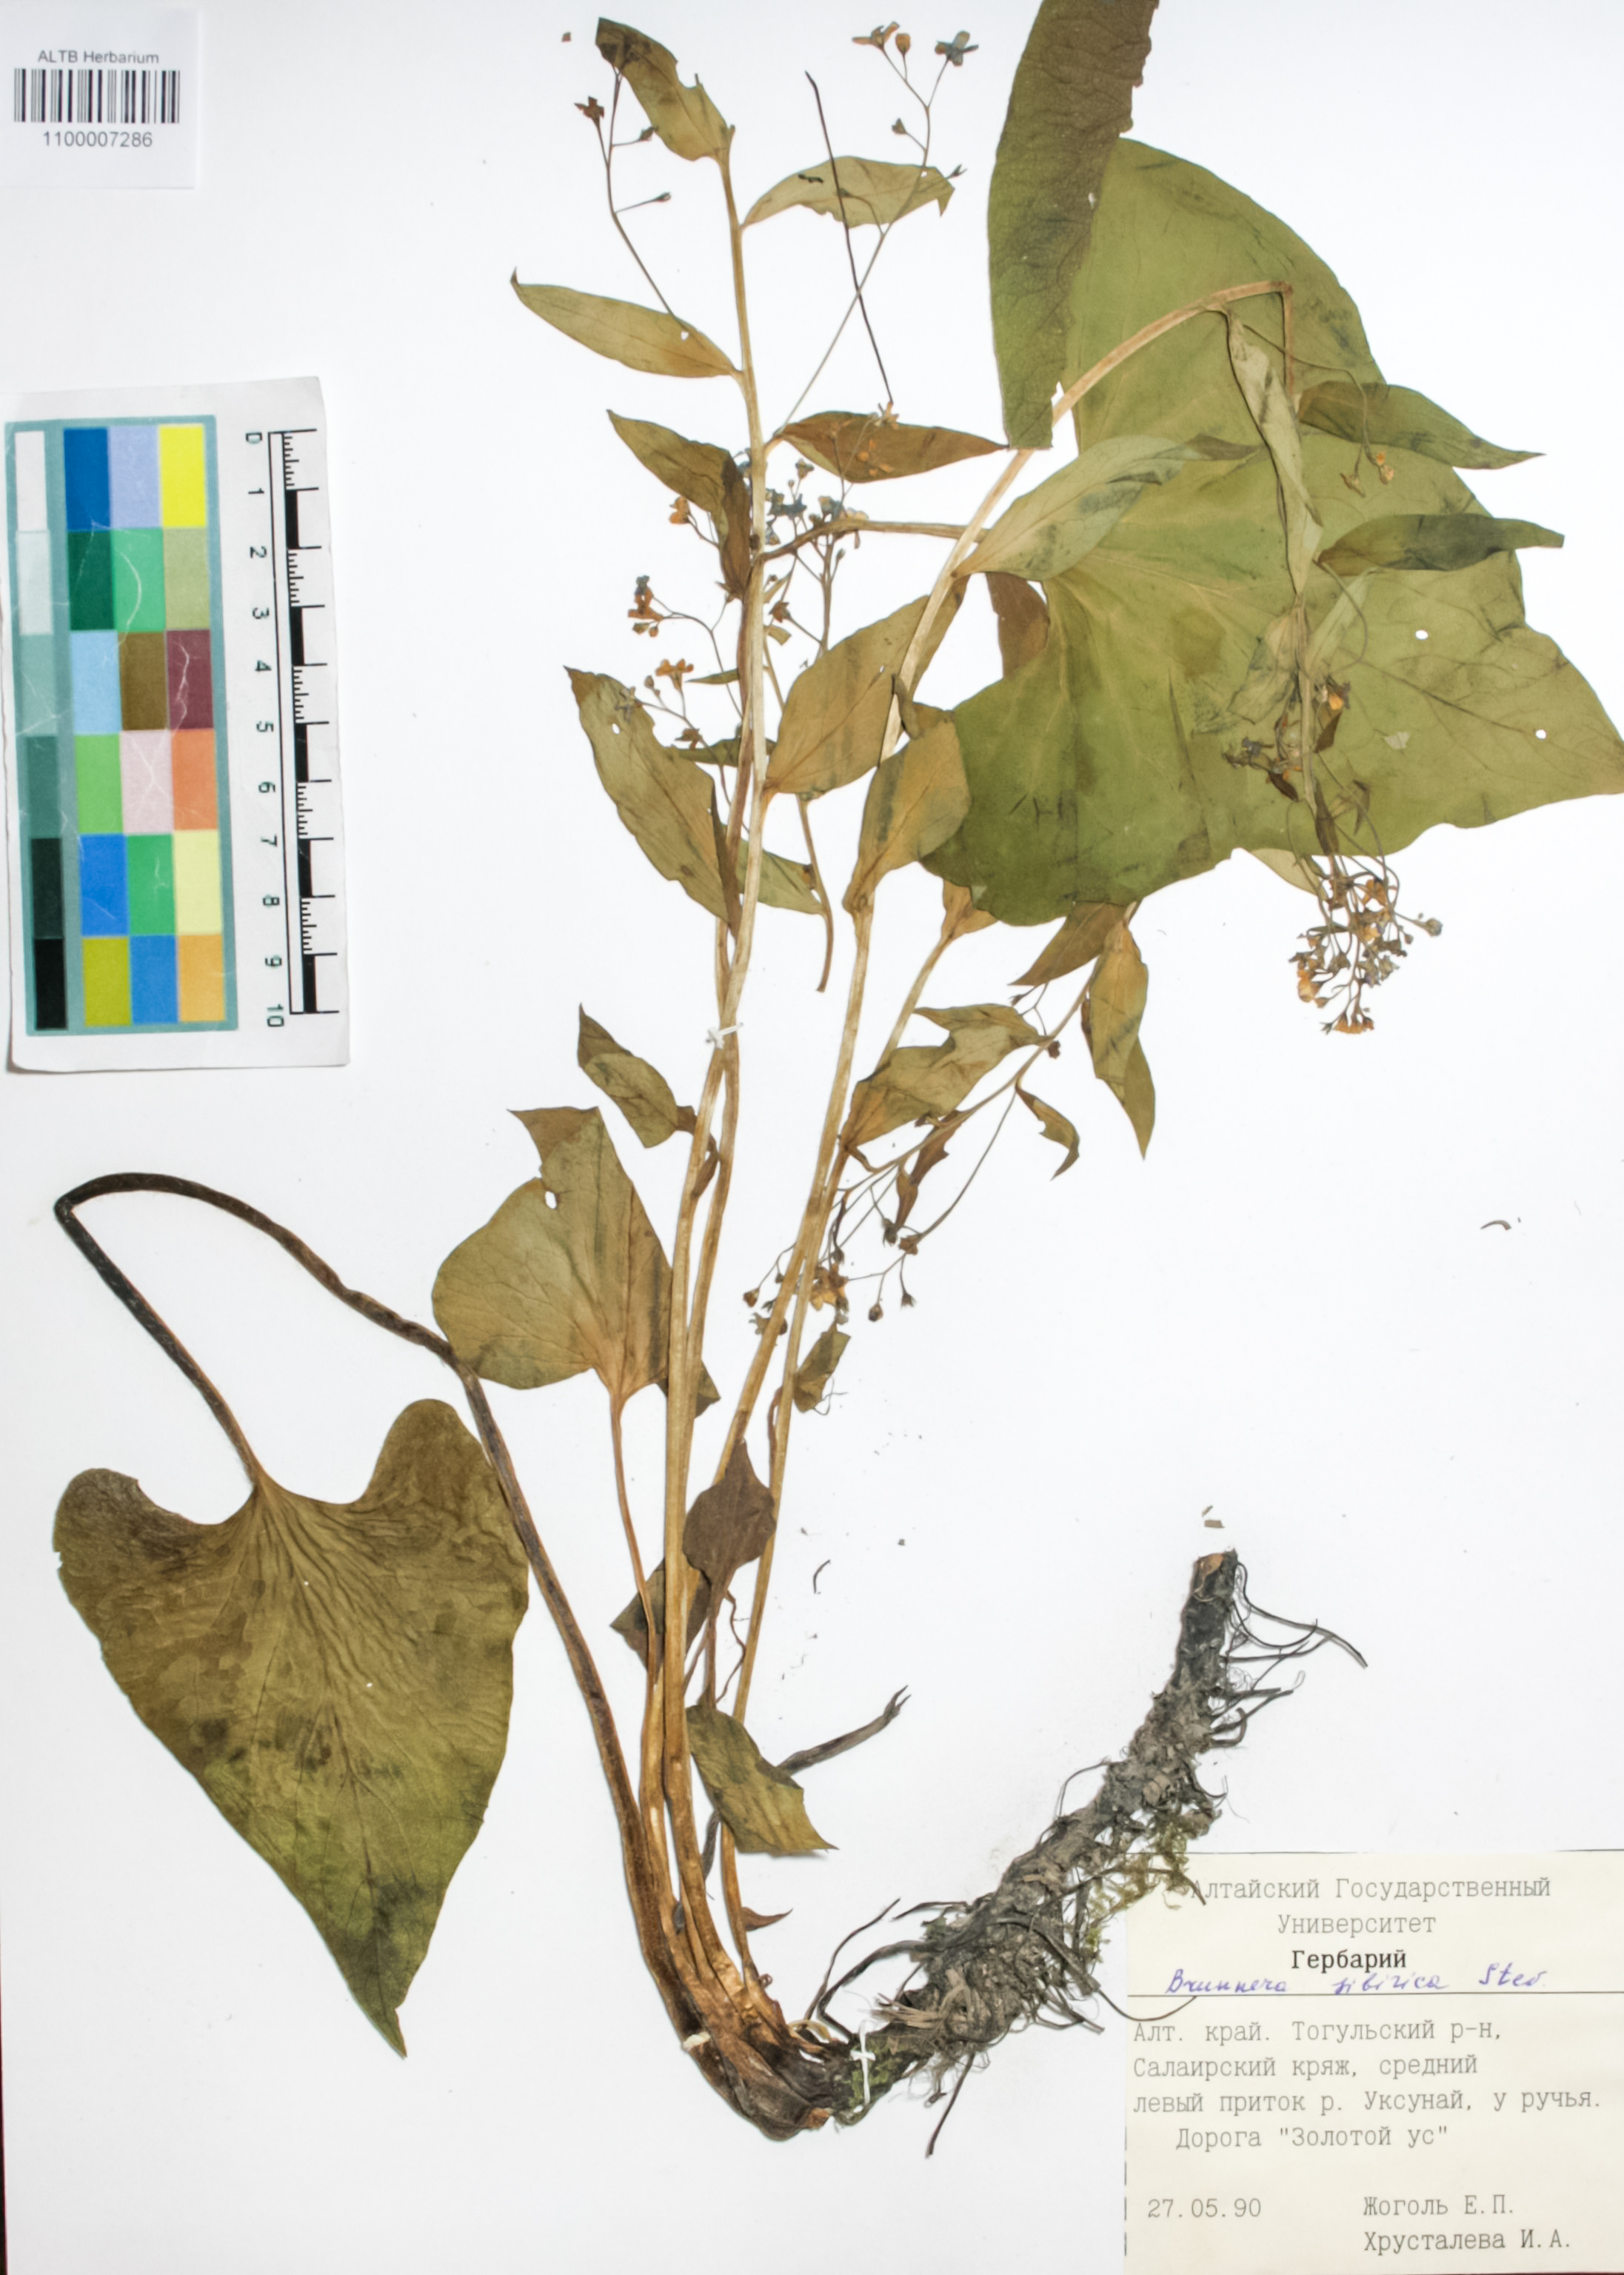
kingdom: Plantae
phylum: Tracheophyta
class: Magnoliopsida
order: Boraginales
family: Boraginaceae
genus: Brunnera
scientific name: Brunnera sibirica
